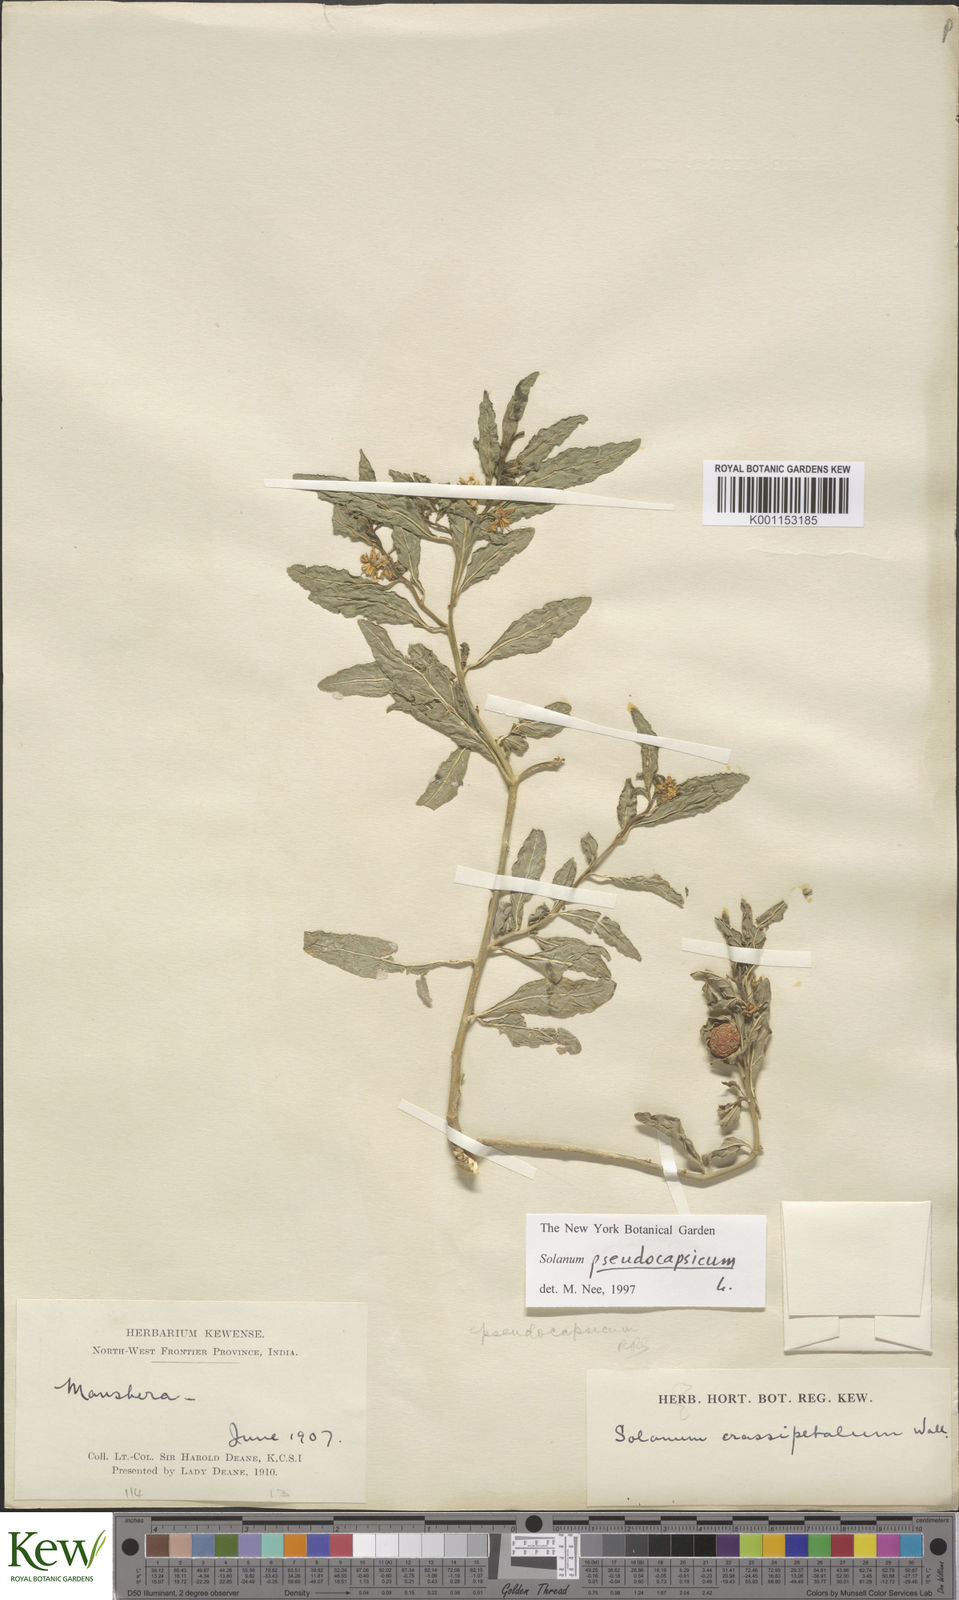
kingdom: Plantae
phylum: Tracheophyta
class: Magnoliopsida
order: Solanales
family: Solanaceae
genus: Solanum
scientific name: Solanum pseudocapsicum
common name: Jerusalem cherry
